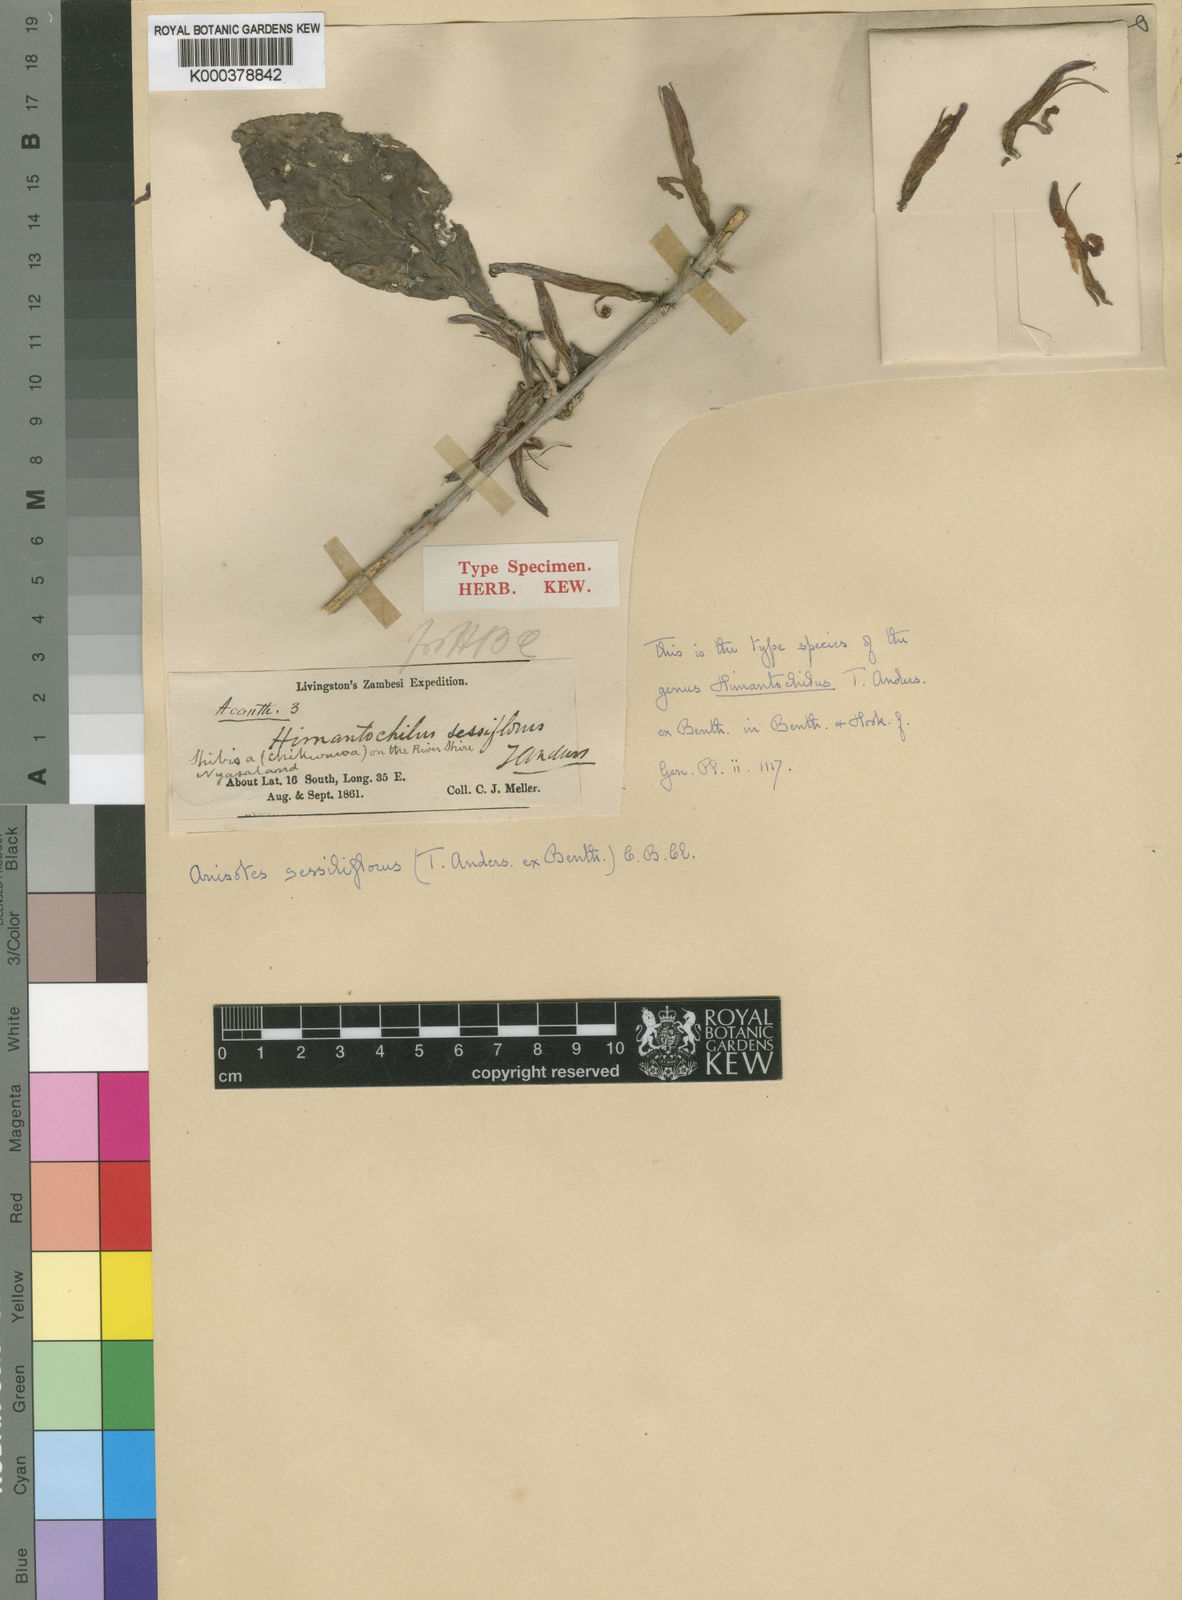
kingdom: Plantae
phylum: Tracheophyta
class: Magnoliopsida
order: Lamiales
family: Acanthaceae
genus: Anisotes
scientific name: Anisotes sessiliflorus
